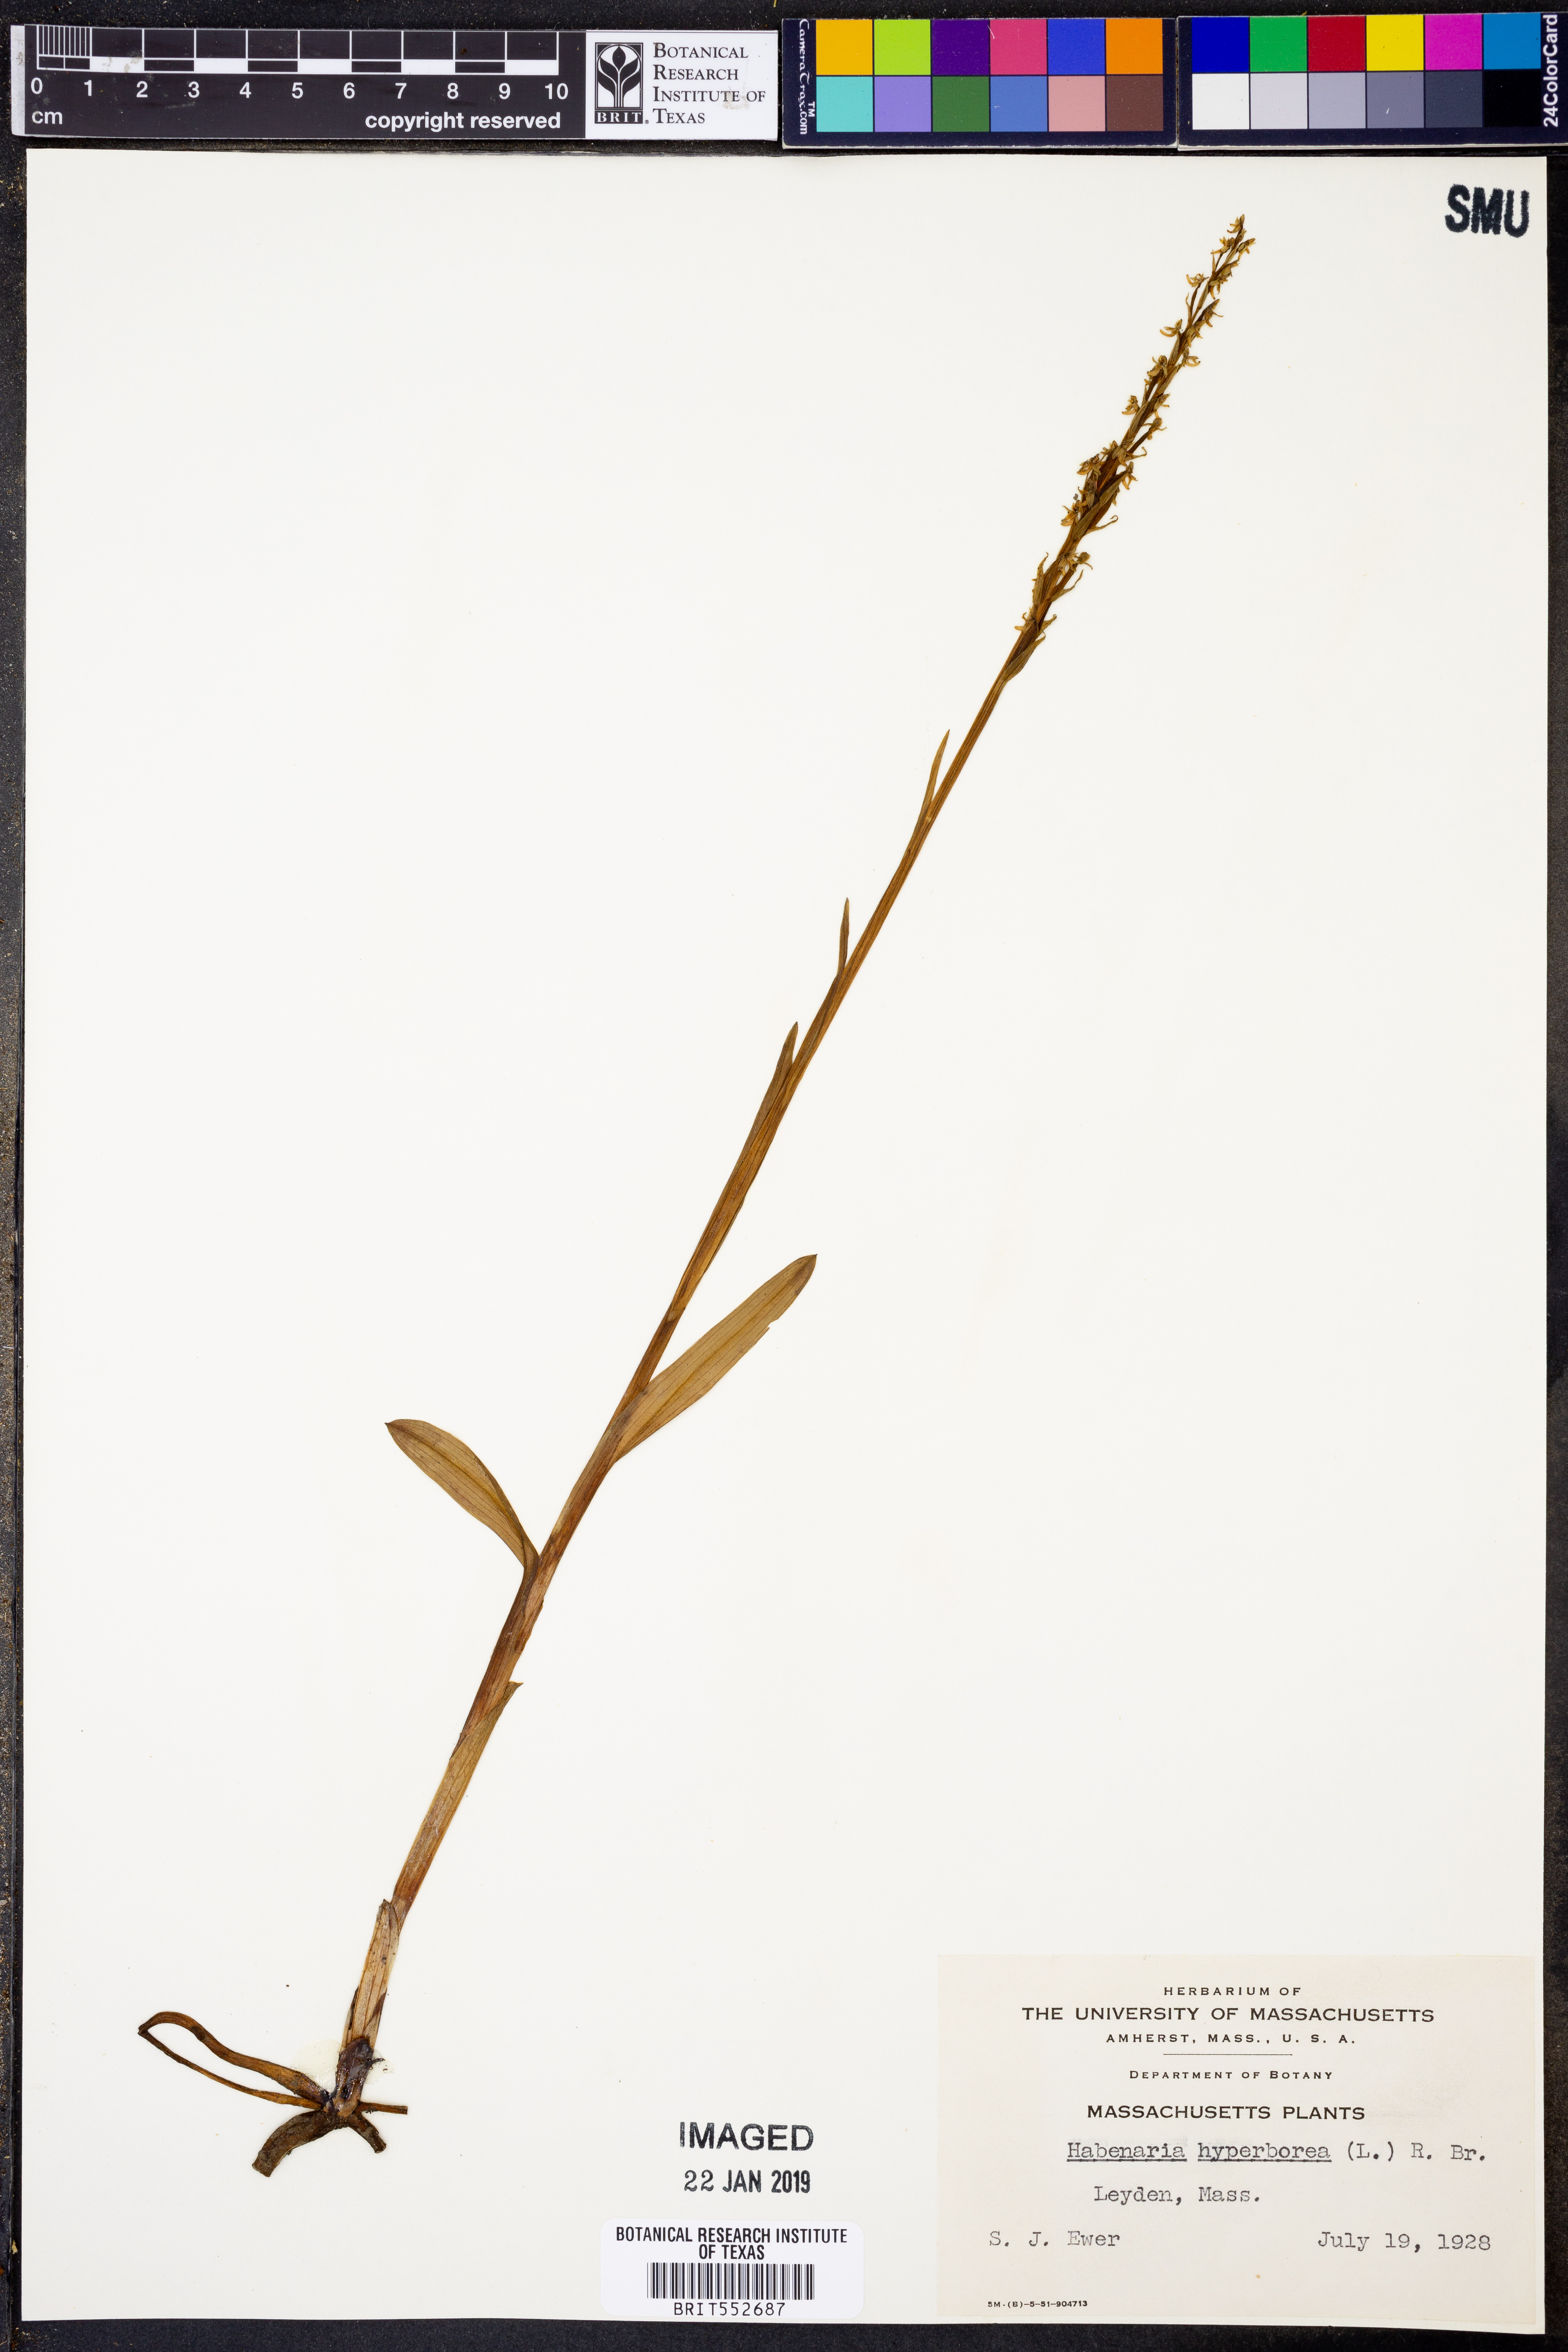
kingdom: Plantae
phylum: Tracheophyta
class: Liliopsida
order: Asparagales
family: Orchidaceae
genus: Platanthera
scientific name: Platanthera hyperborea
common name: Northern green orchid
